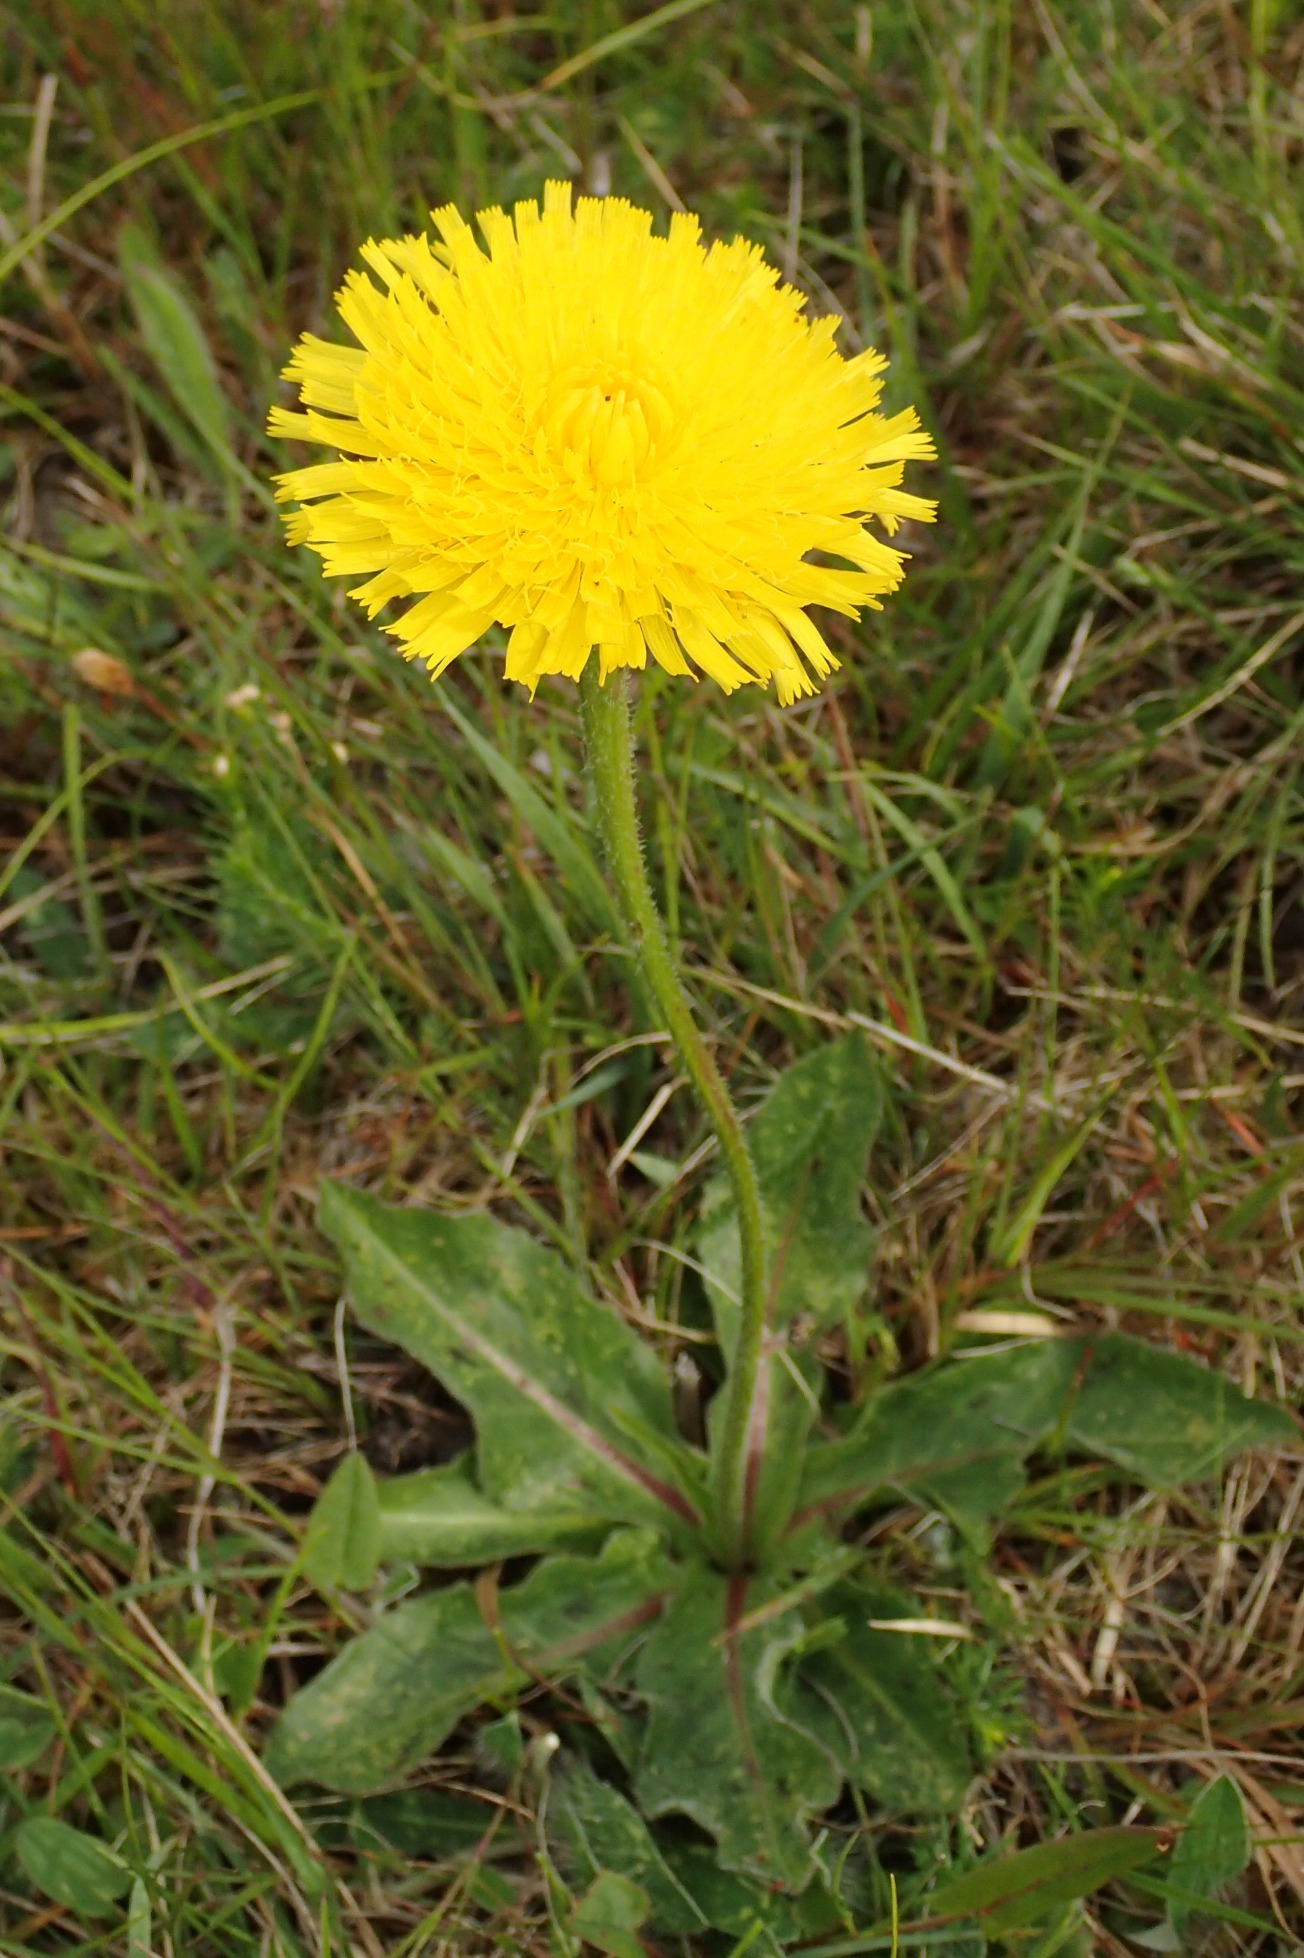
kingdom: Plantae
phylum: Tracheophyta
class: Magnoliopsida
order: Asterales
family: Asteraceae
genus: Trommsdorffia
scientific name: Trommsdorffia maculata
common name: Plettet kongepen
